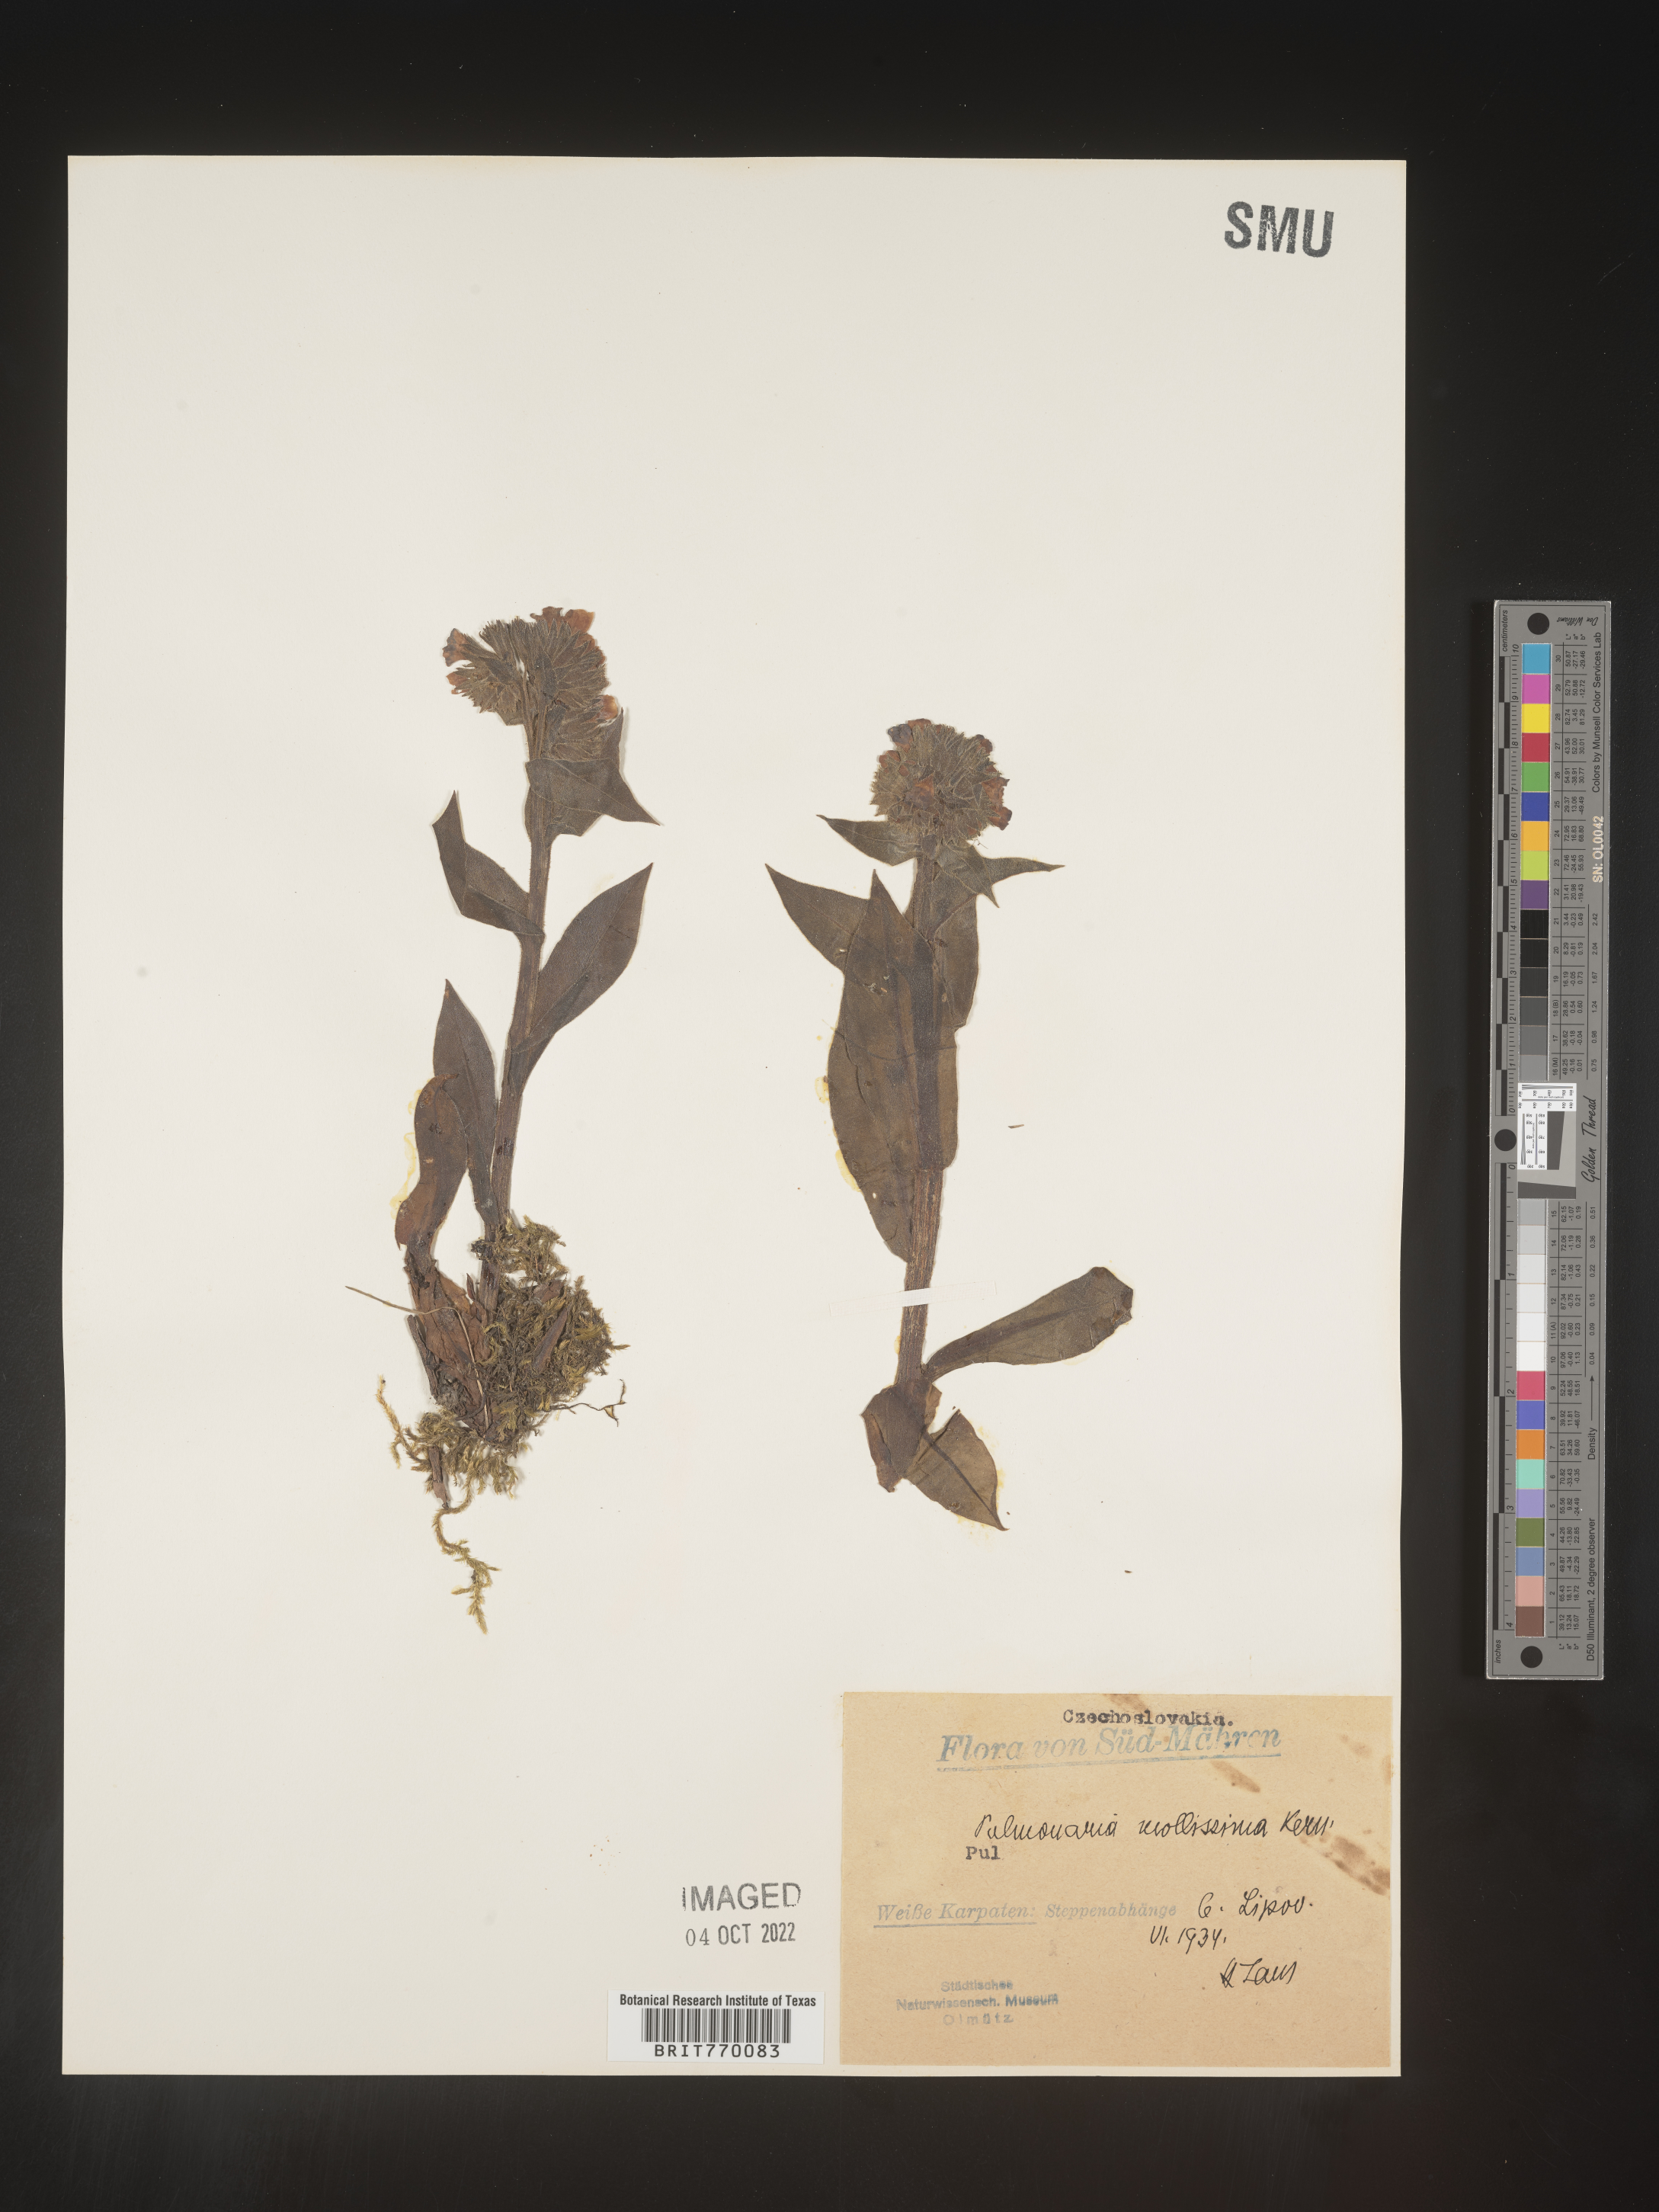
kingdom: Plantae
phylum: Tracheophyta
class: Magnoliopsida
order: Boraginales
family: Boraginaceae
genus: Pulmonaria
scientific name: Pulmonaria
